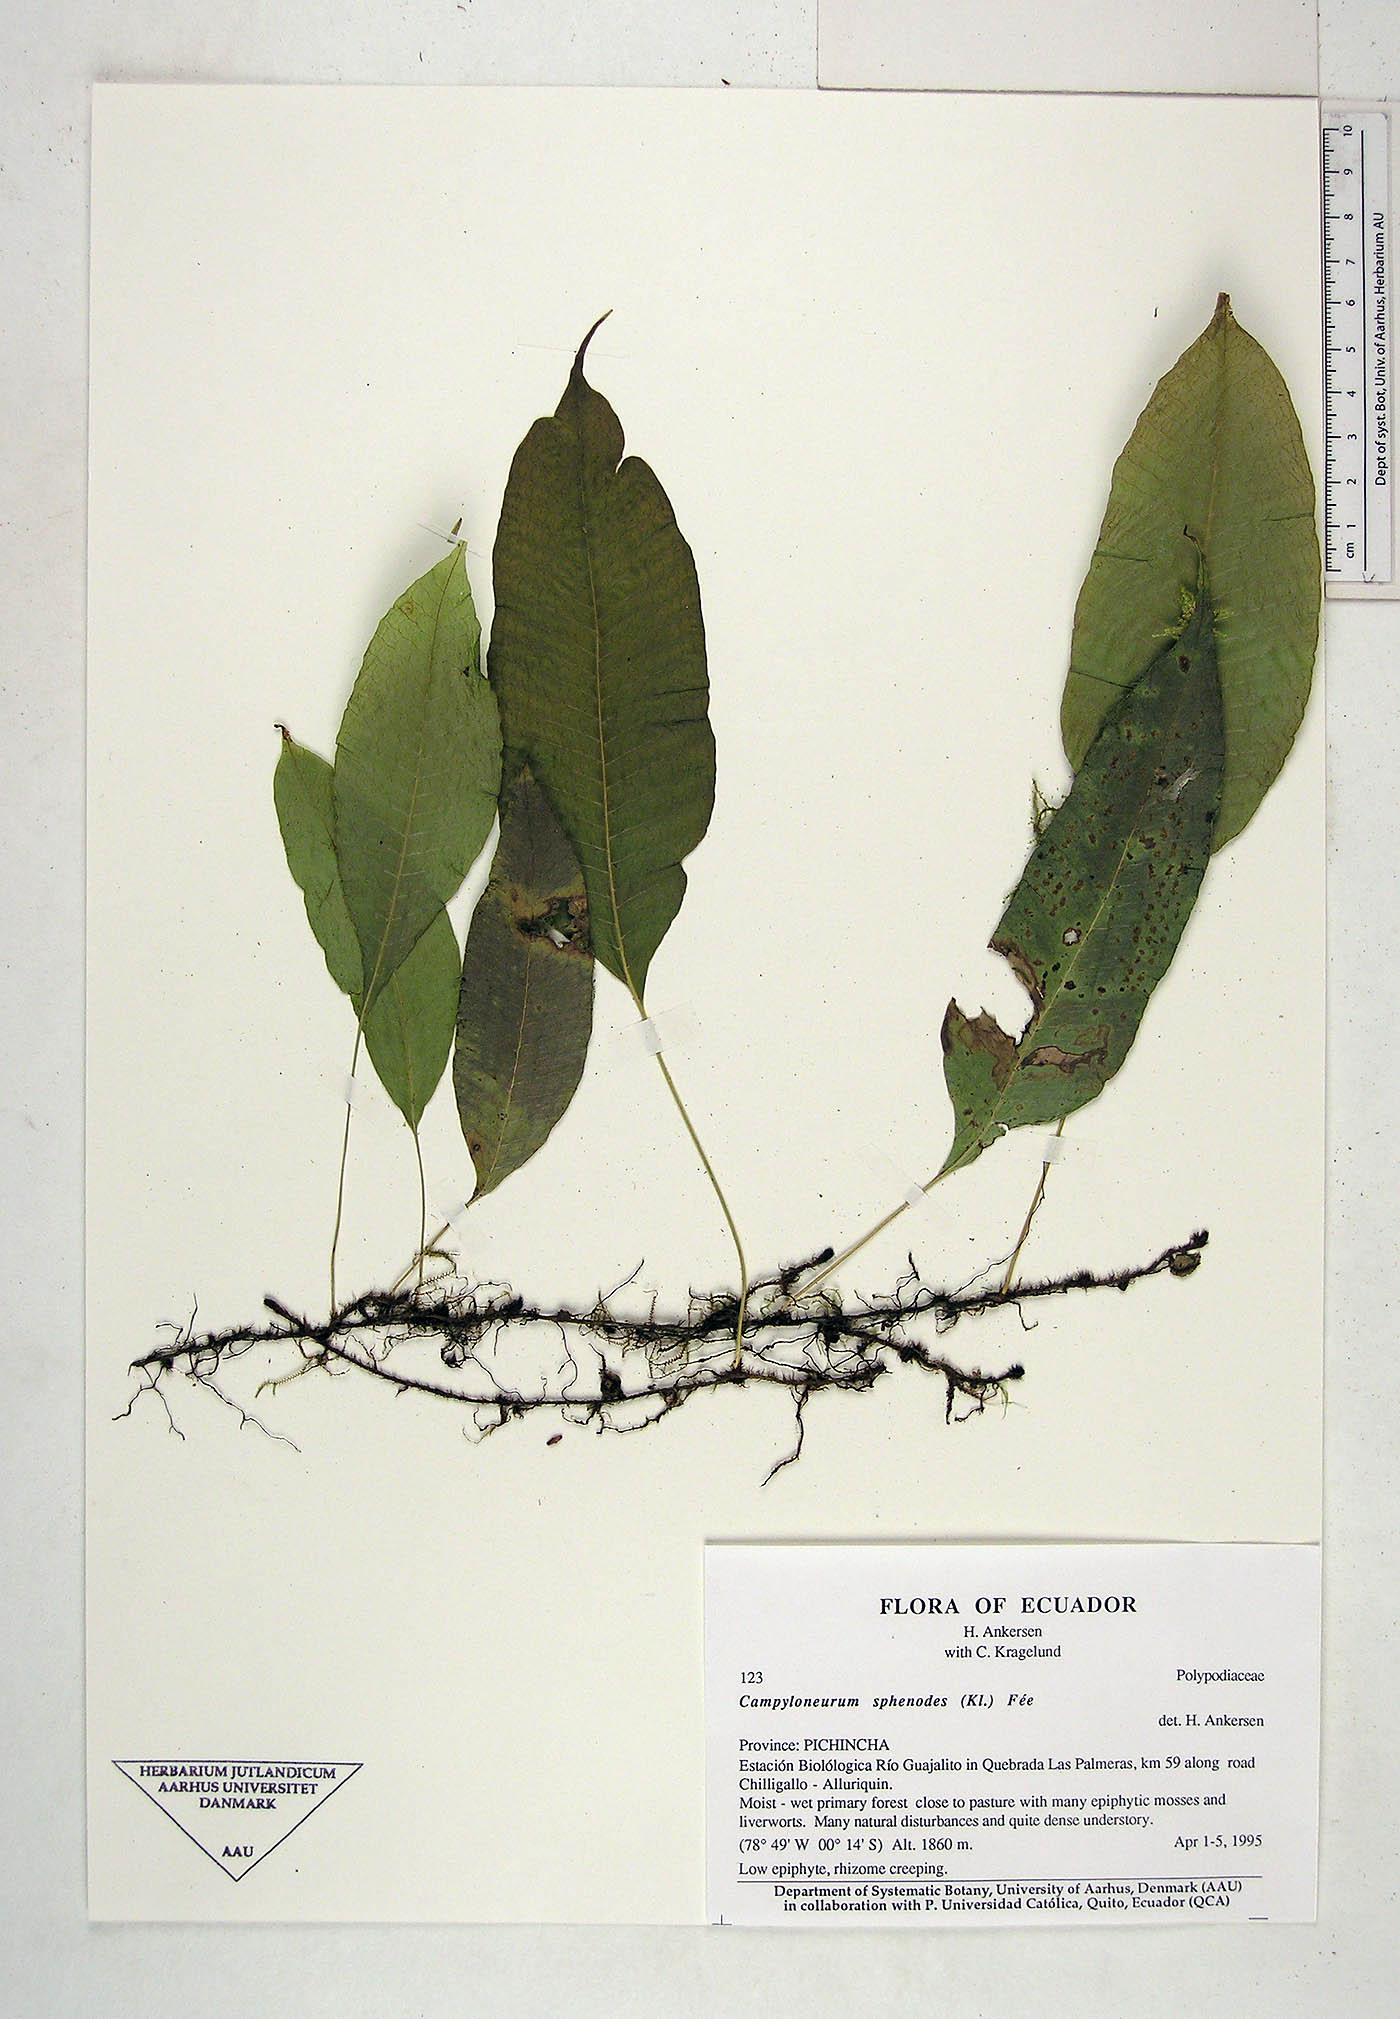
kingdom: Plantae
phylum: Tracheophyta
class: Polypodiopsida
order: Polypodiales
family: Polypodiaceae
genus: Campyloneurum
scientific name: Campyloneurum sphenodes
